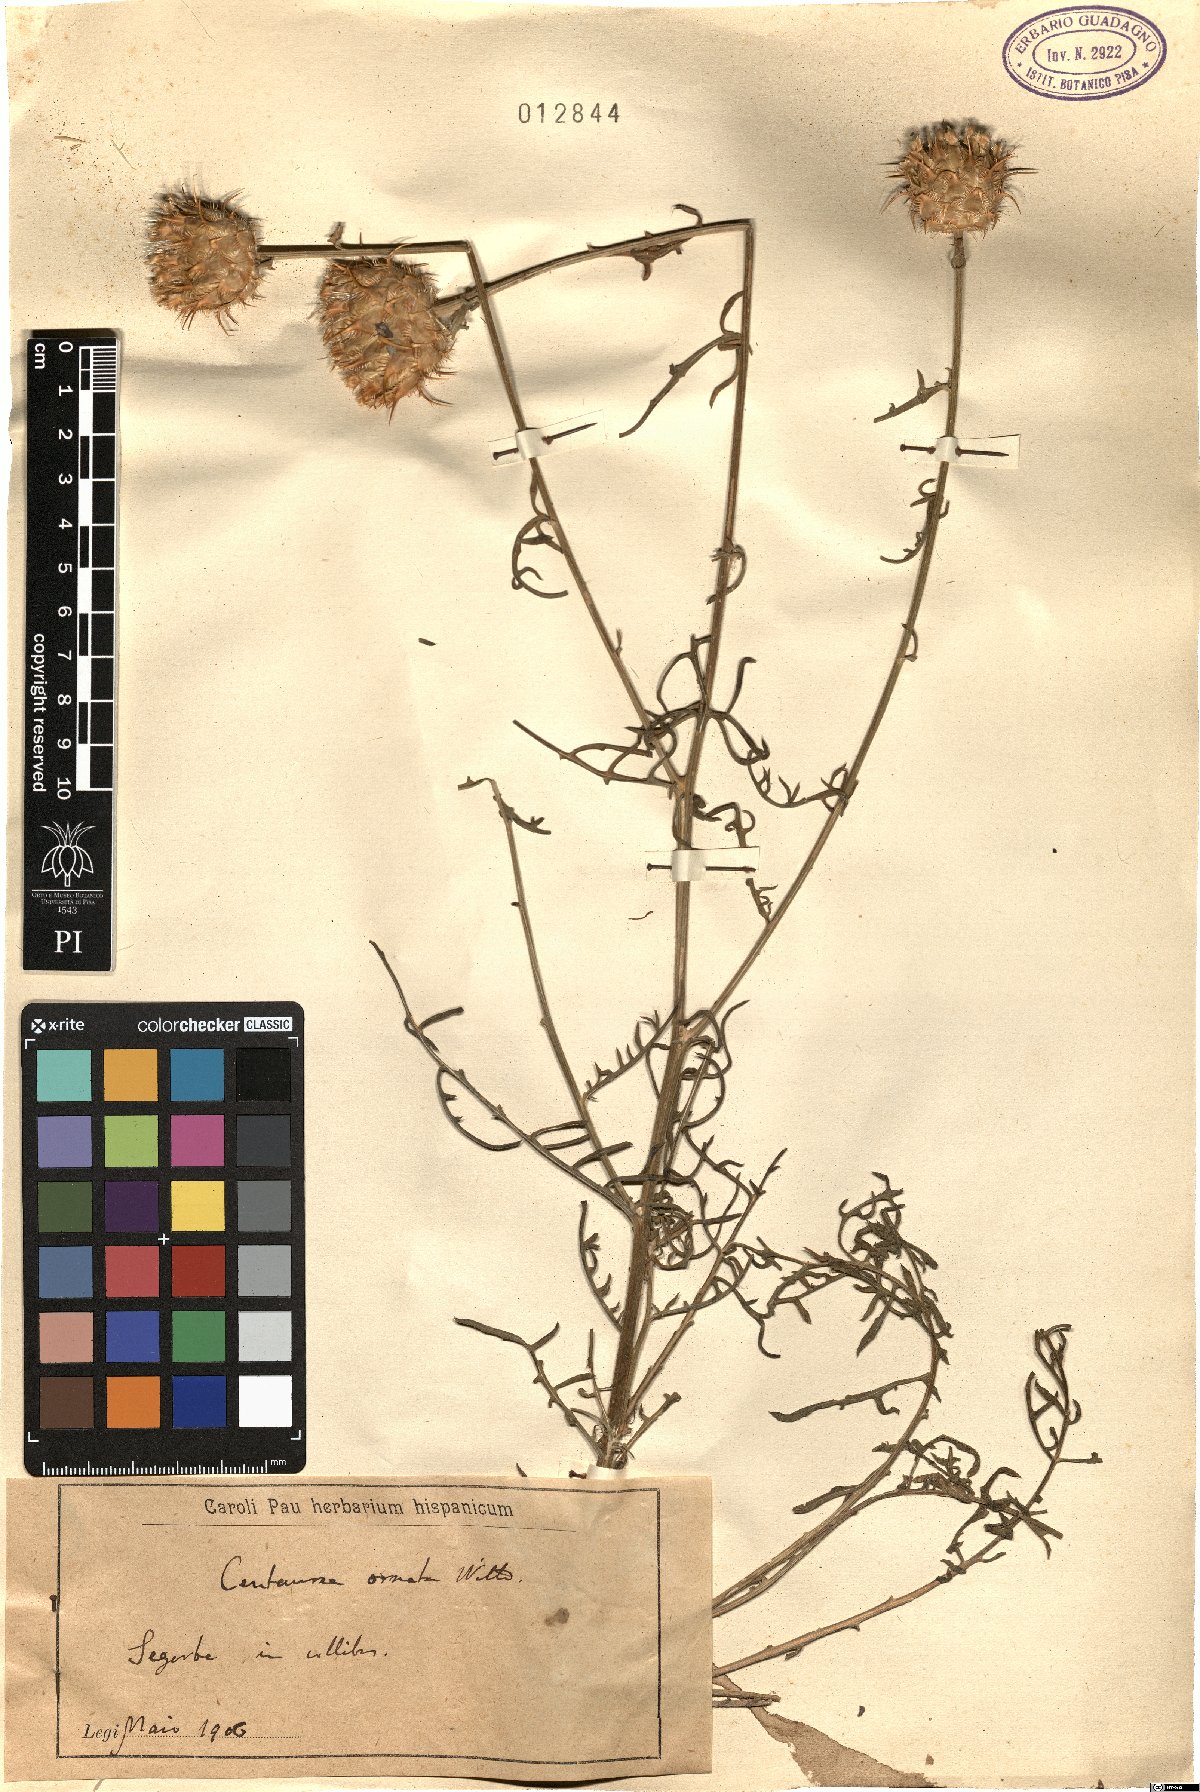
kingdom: Plantae
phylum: Tracheophyta
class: Magnoliopsida
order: Asterales
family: Asteraceae
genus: Centaurea
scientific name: Centaurea ornata
